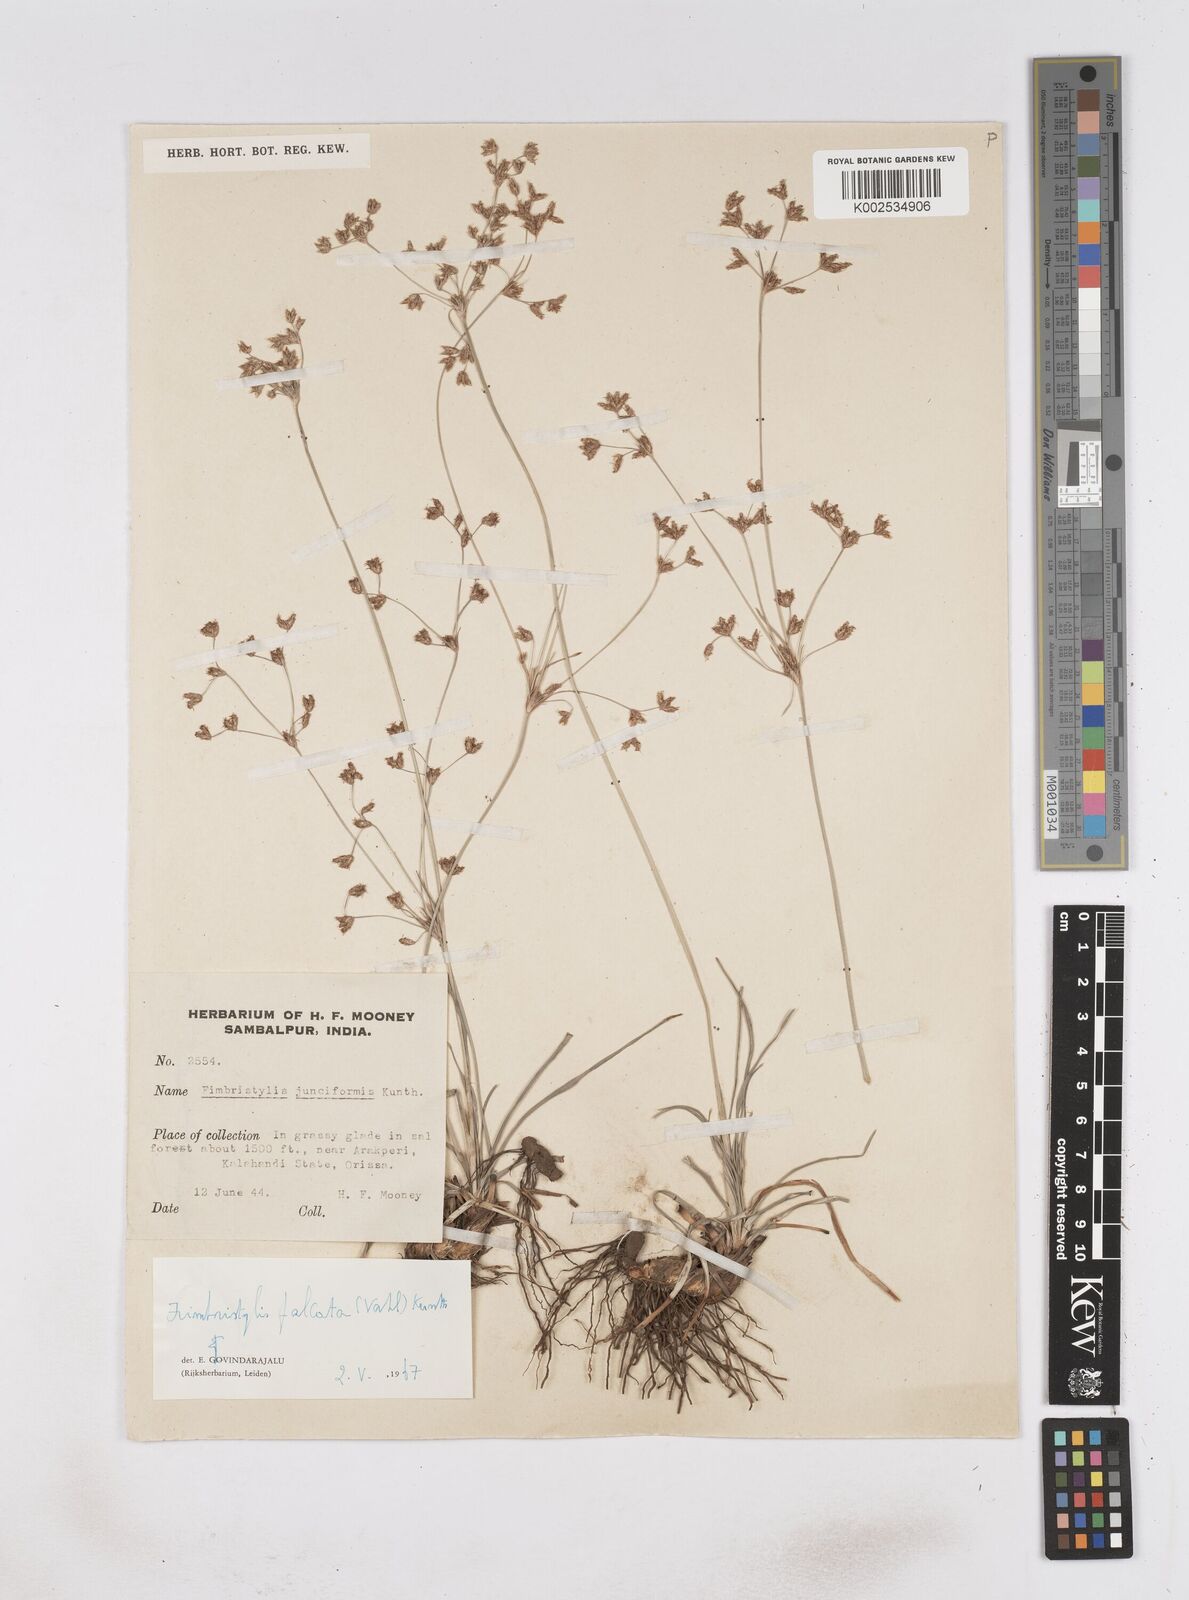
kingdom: Plantae
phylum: Tracheophyta
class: Liliopsida
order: Poales
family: Cyperaceae
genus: Fimbristylis
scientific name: Fimbristylis falcata
